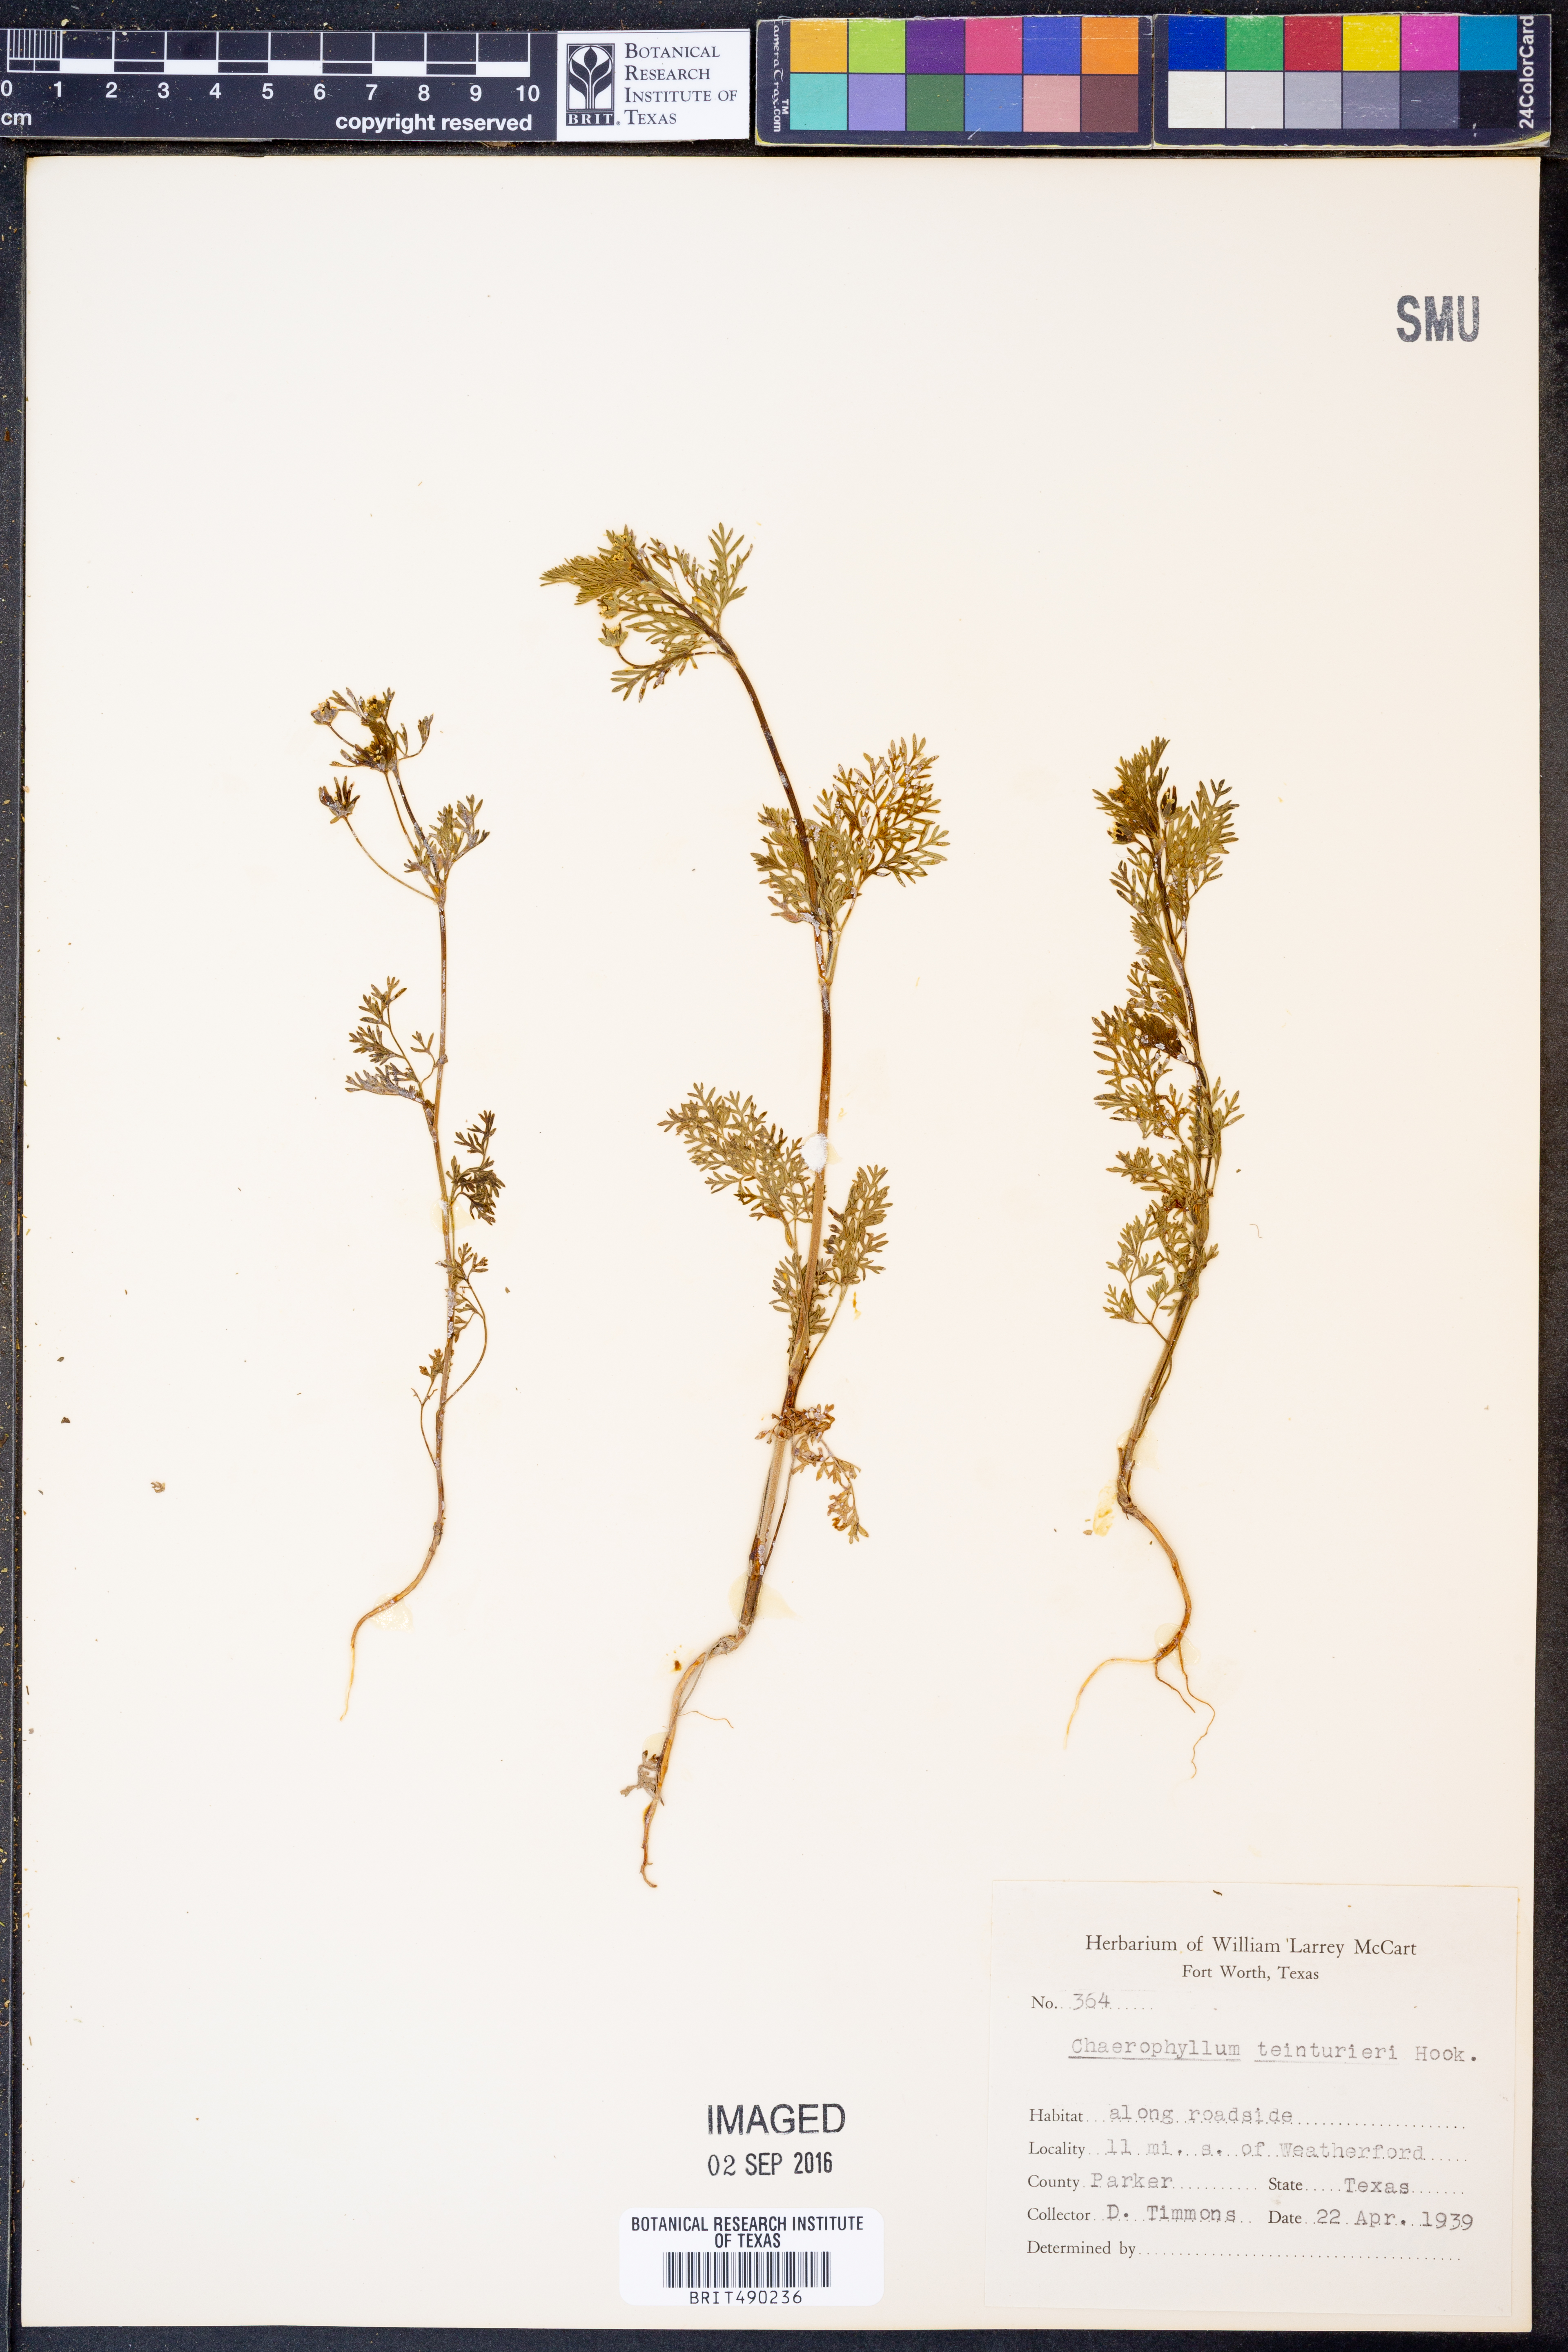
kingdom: Plantae
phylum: Tracheophyta
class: Magnoliopsida
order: Apiales
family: Apiaceae
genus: Chaerophyllum
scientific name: Chaerophyllum tainturieri
